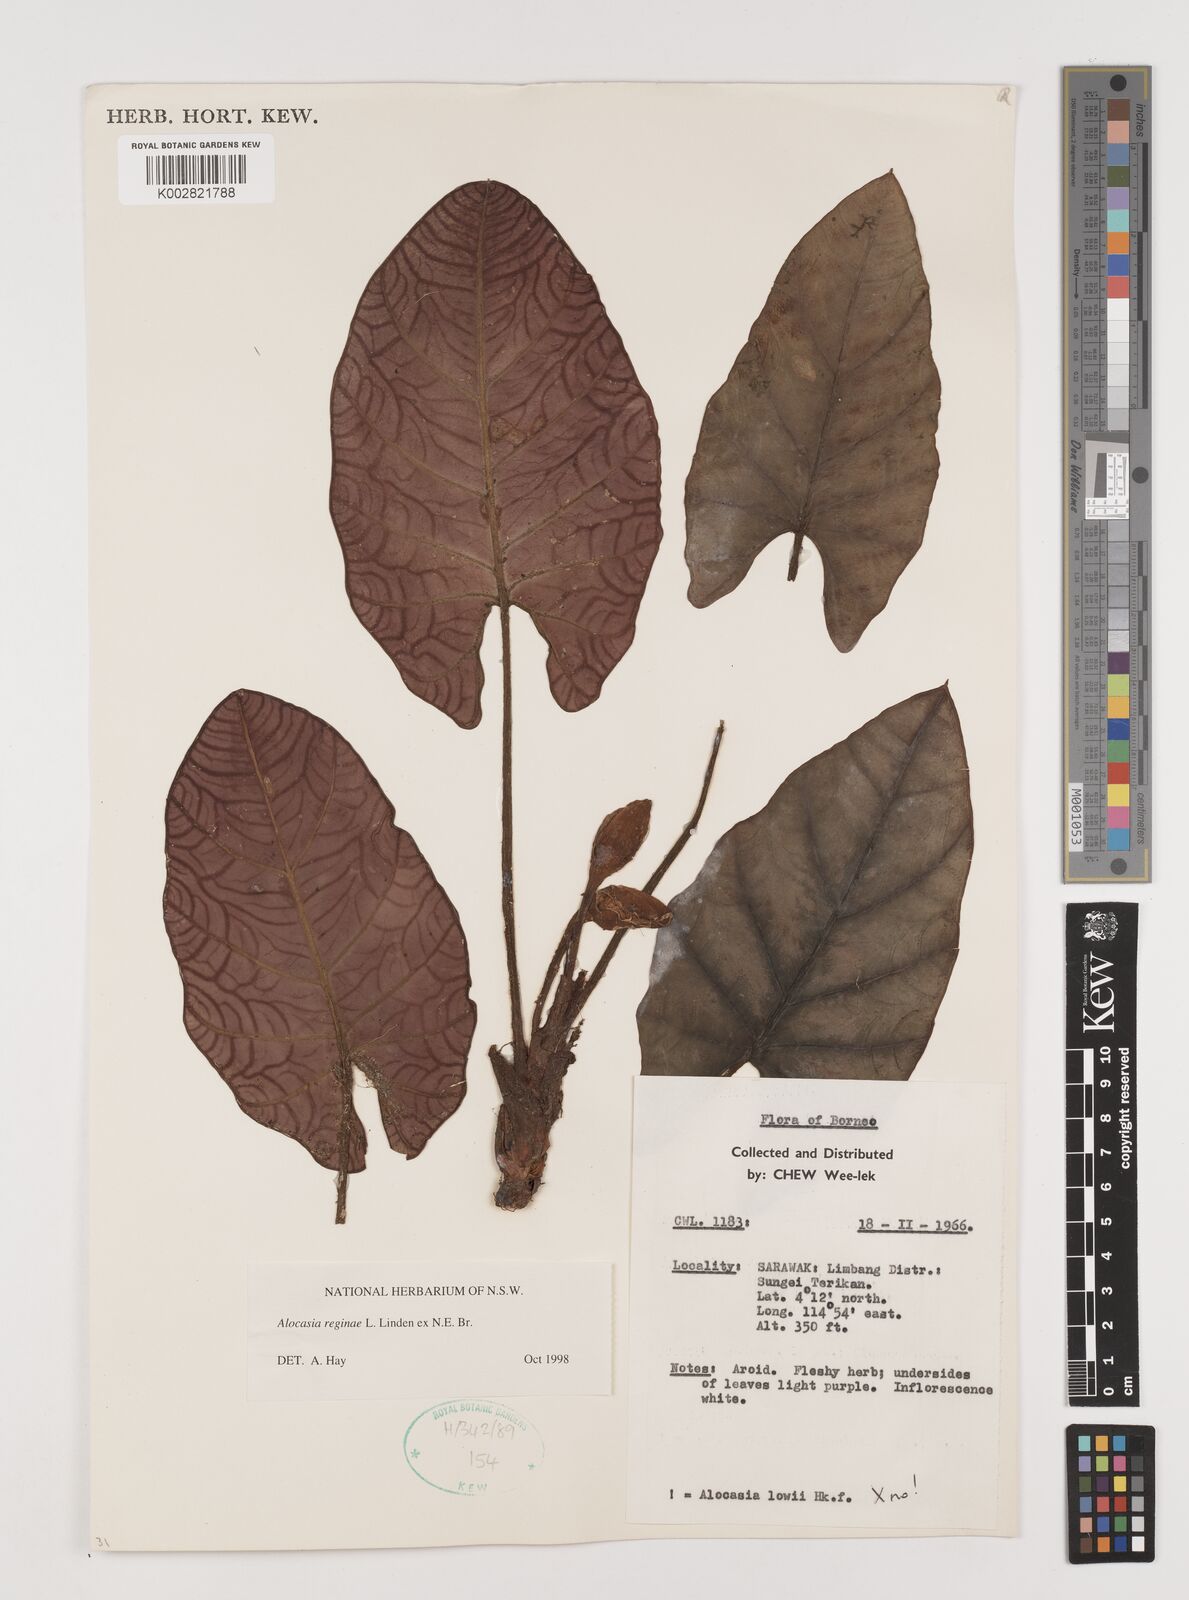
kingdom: Plantae
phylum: Tracheophyta
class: Liliopsida
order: Alismatales
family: Araceae
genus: Alocasia
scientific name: Alocasia reginae
